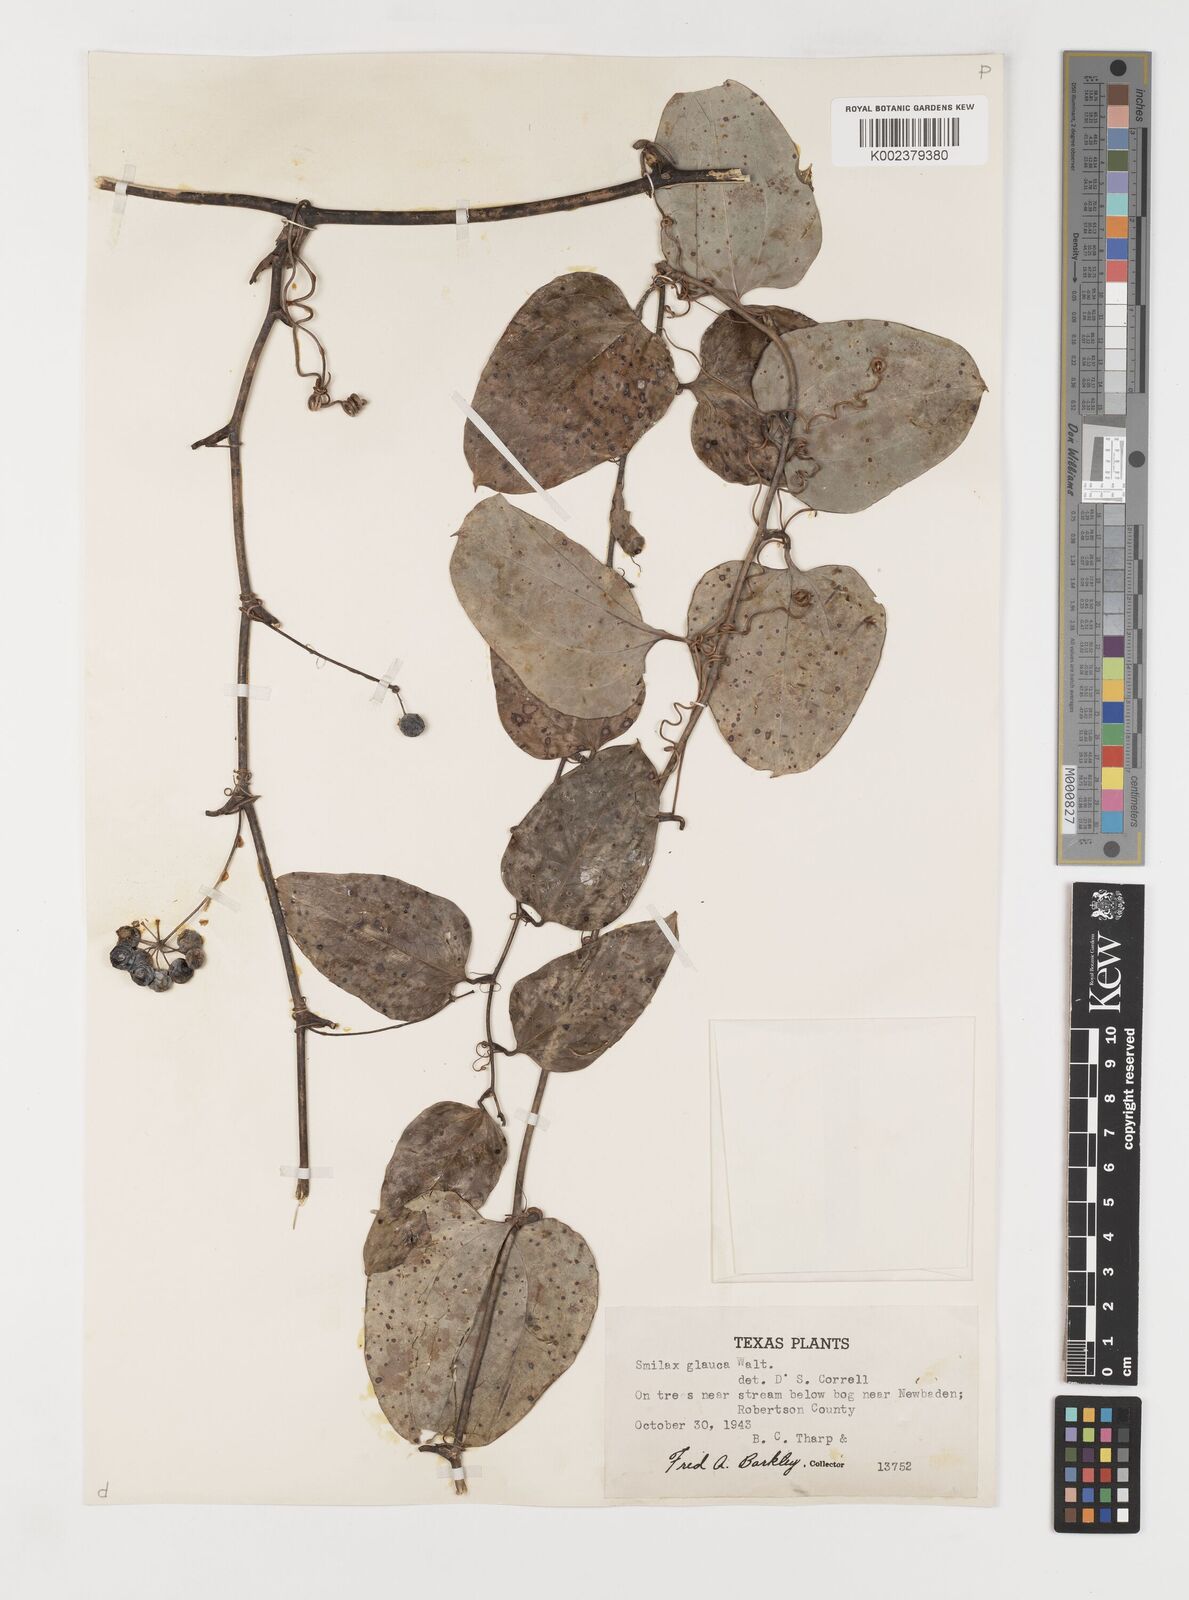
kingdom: Plantae
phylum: Tracheophyta
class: Liliopsida
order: Liliales
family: Smilacaceae
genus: Smilax
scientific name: Smilax glauca
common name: Cat greenbrier
